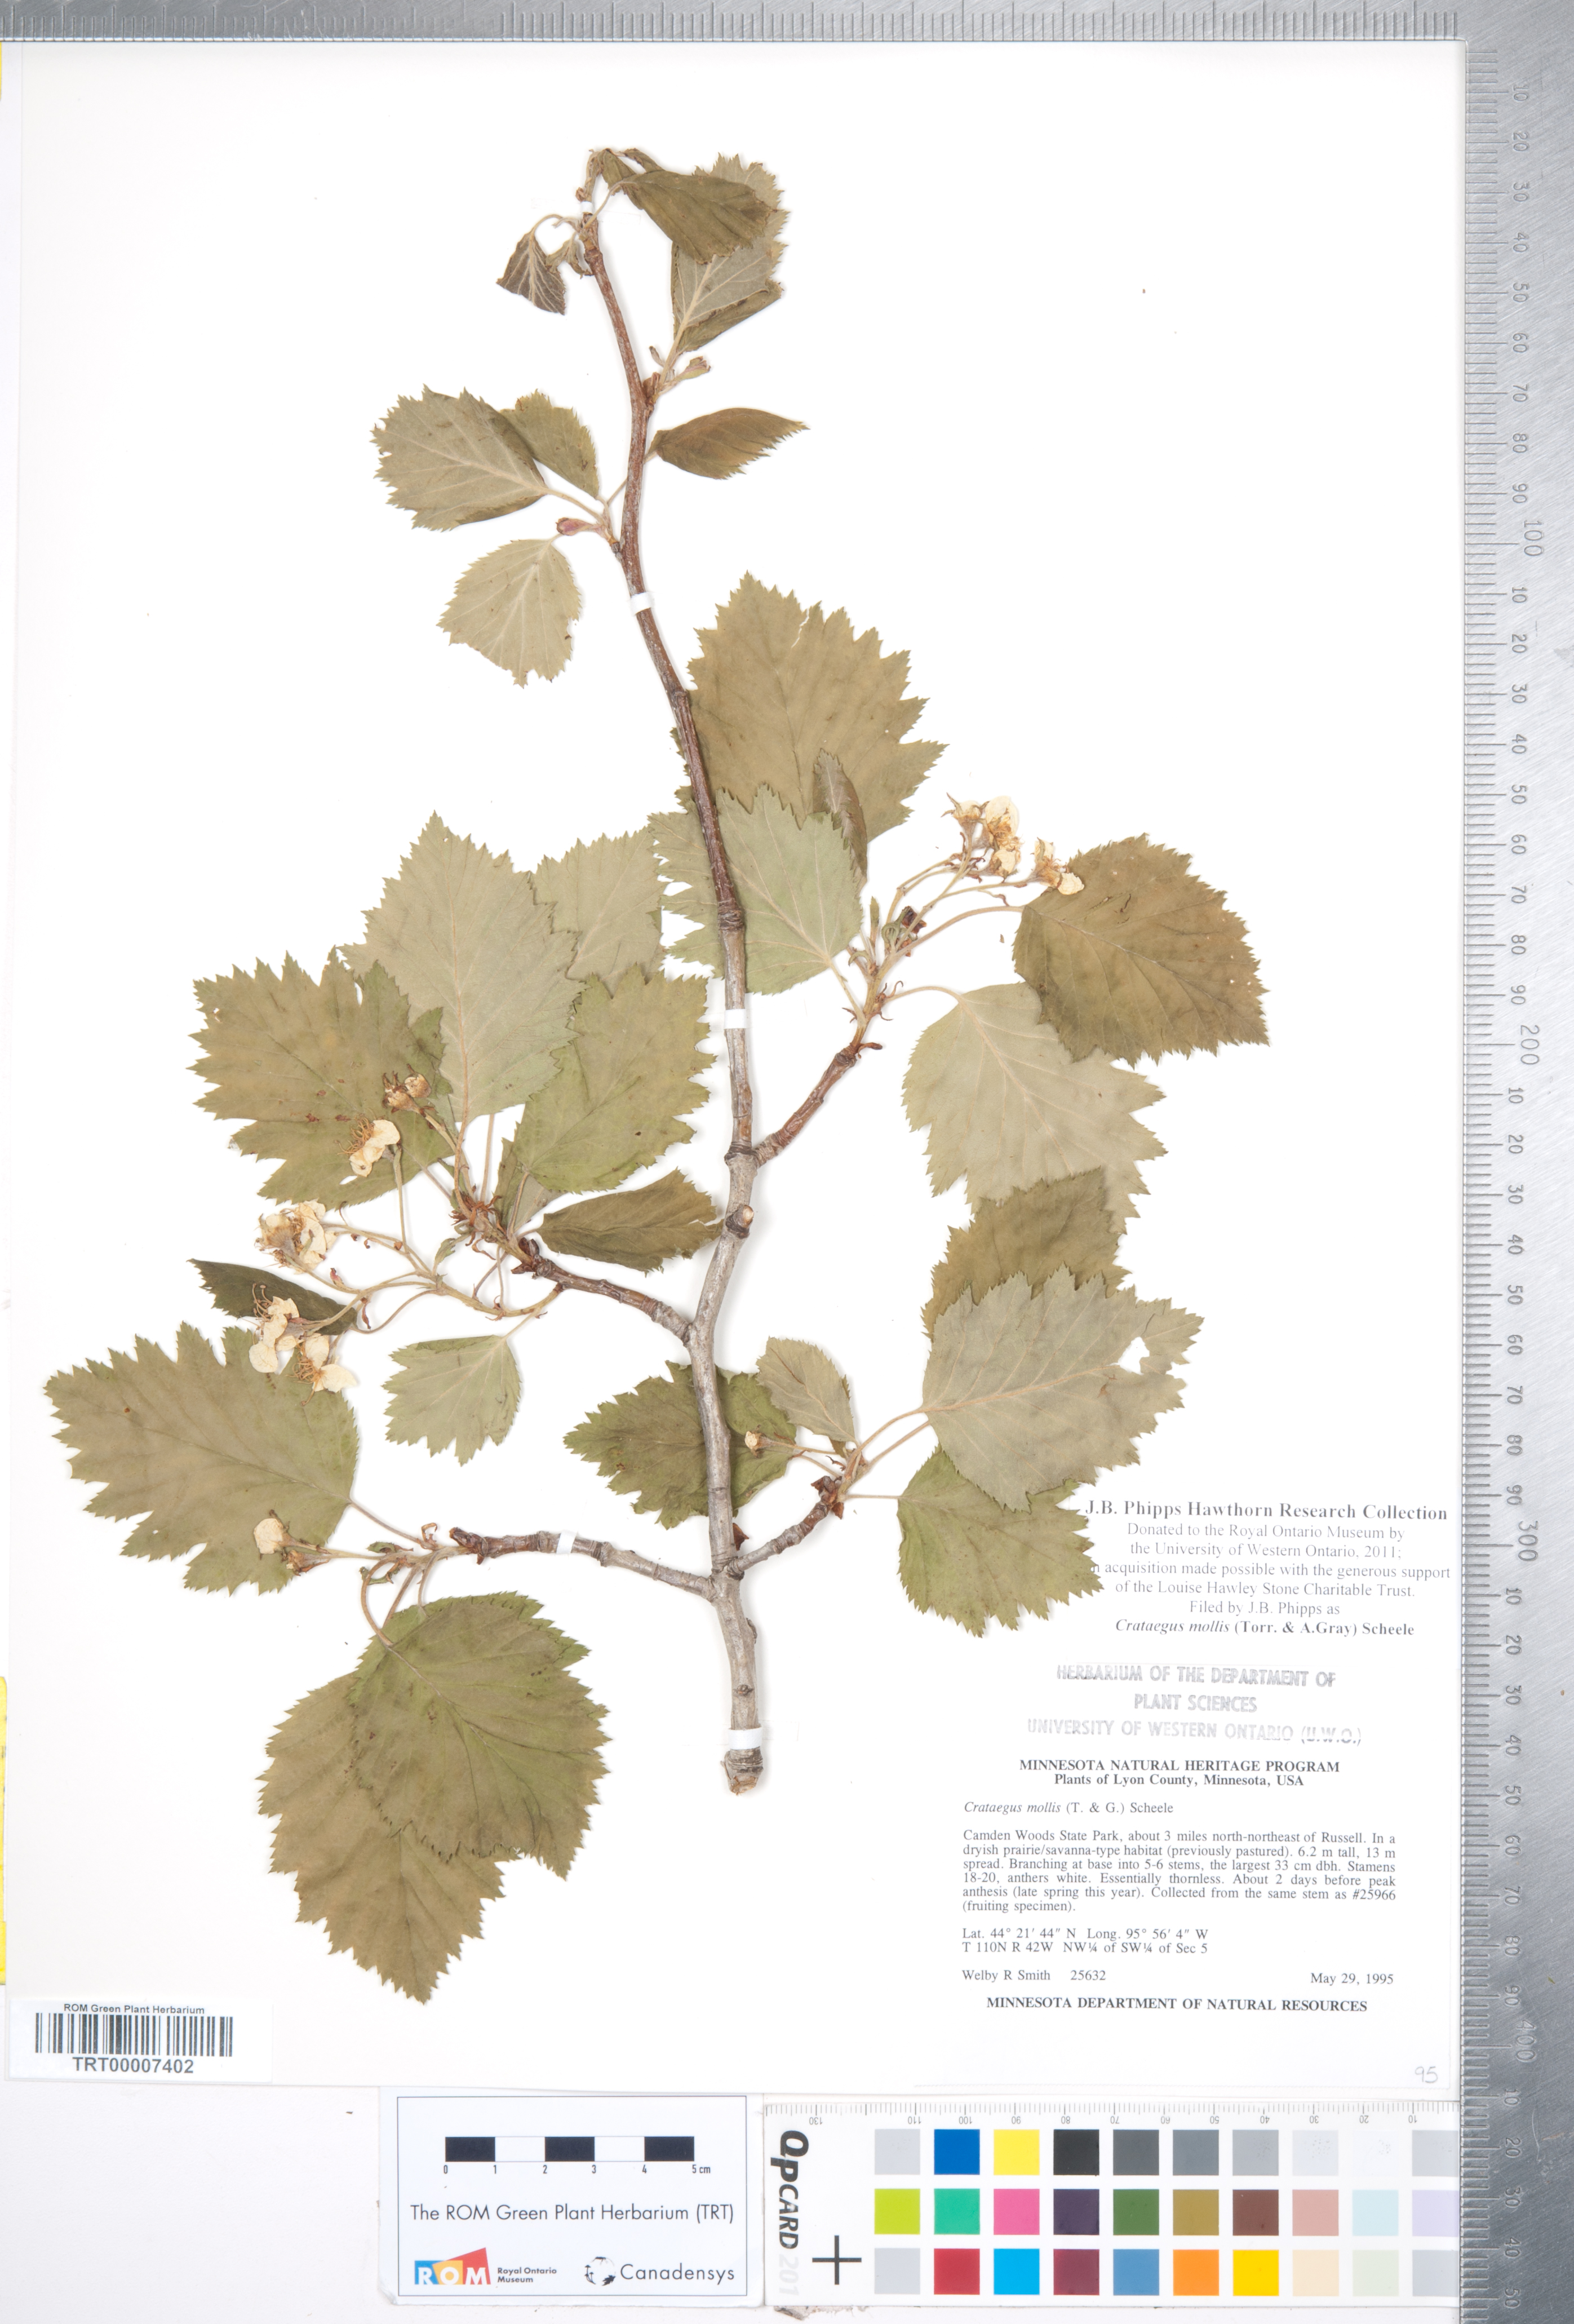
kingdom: Plantae
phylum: Tracheophyta
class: Magnoliopsida
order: Rosales
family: Rosaceae
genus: Crataegus
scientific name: Crataegus mollis
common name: Downy hawthorn
